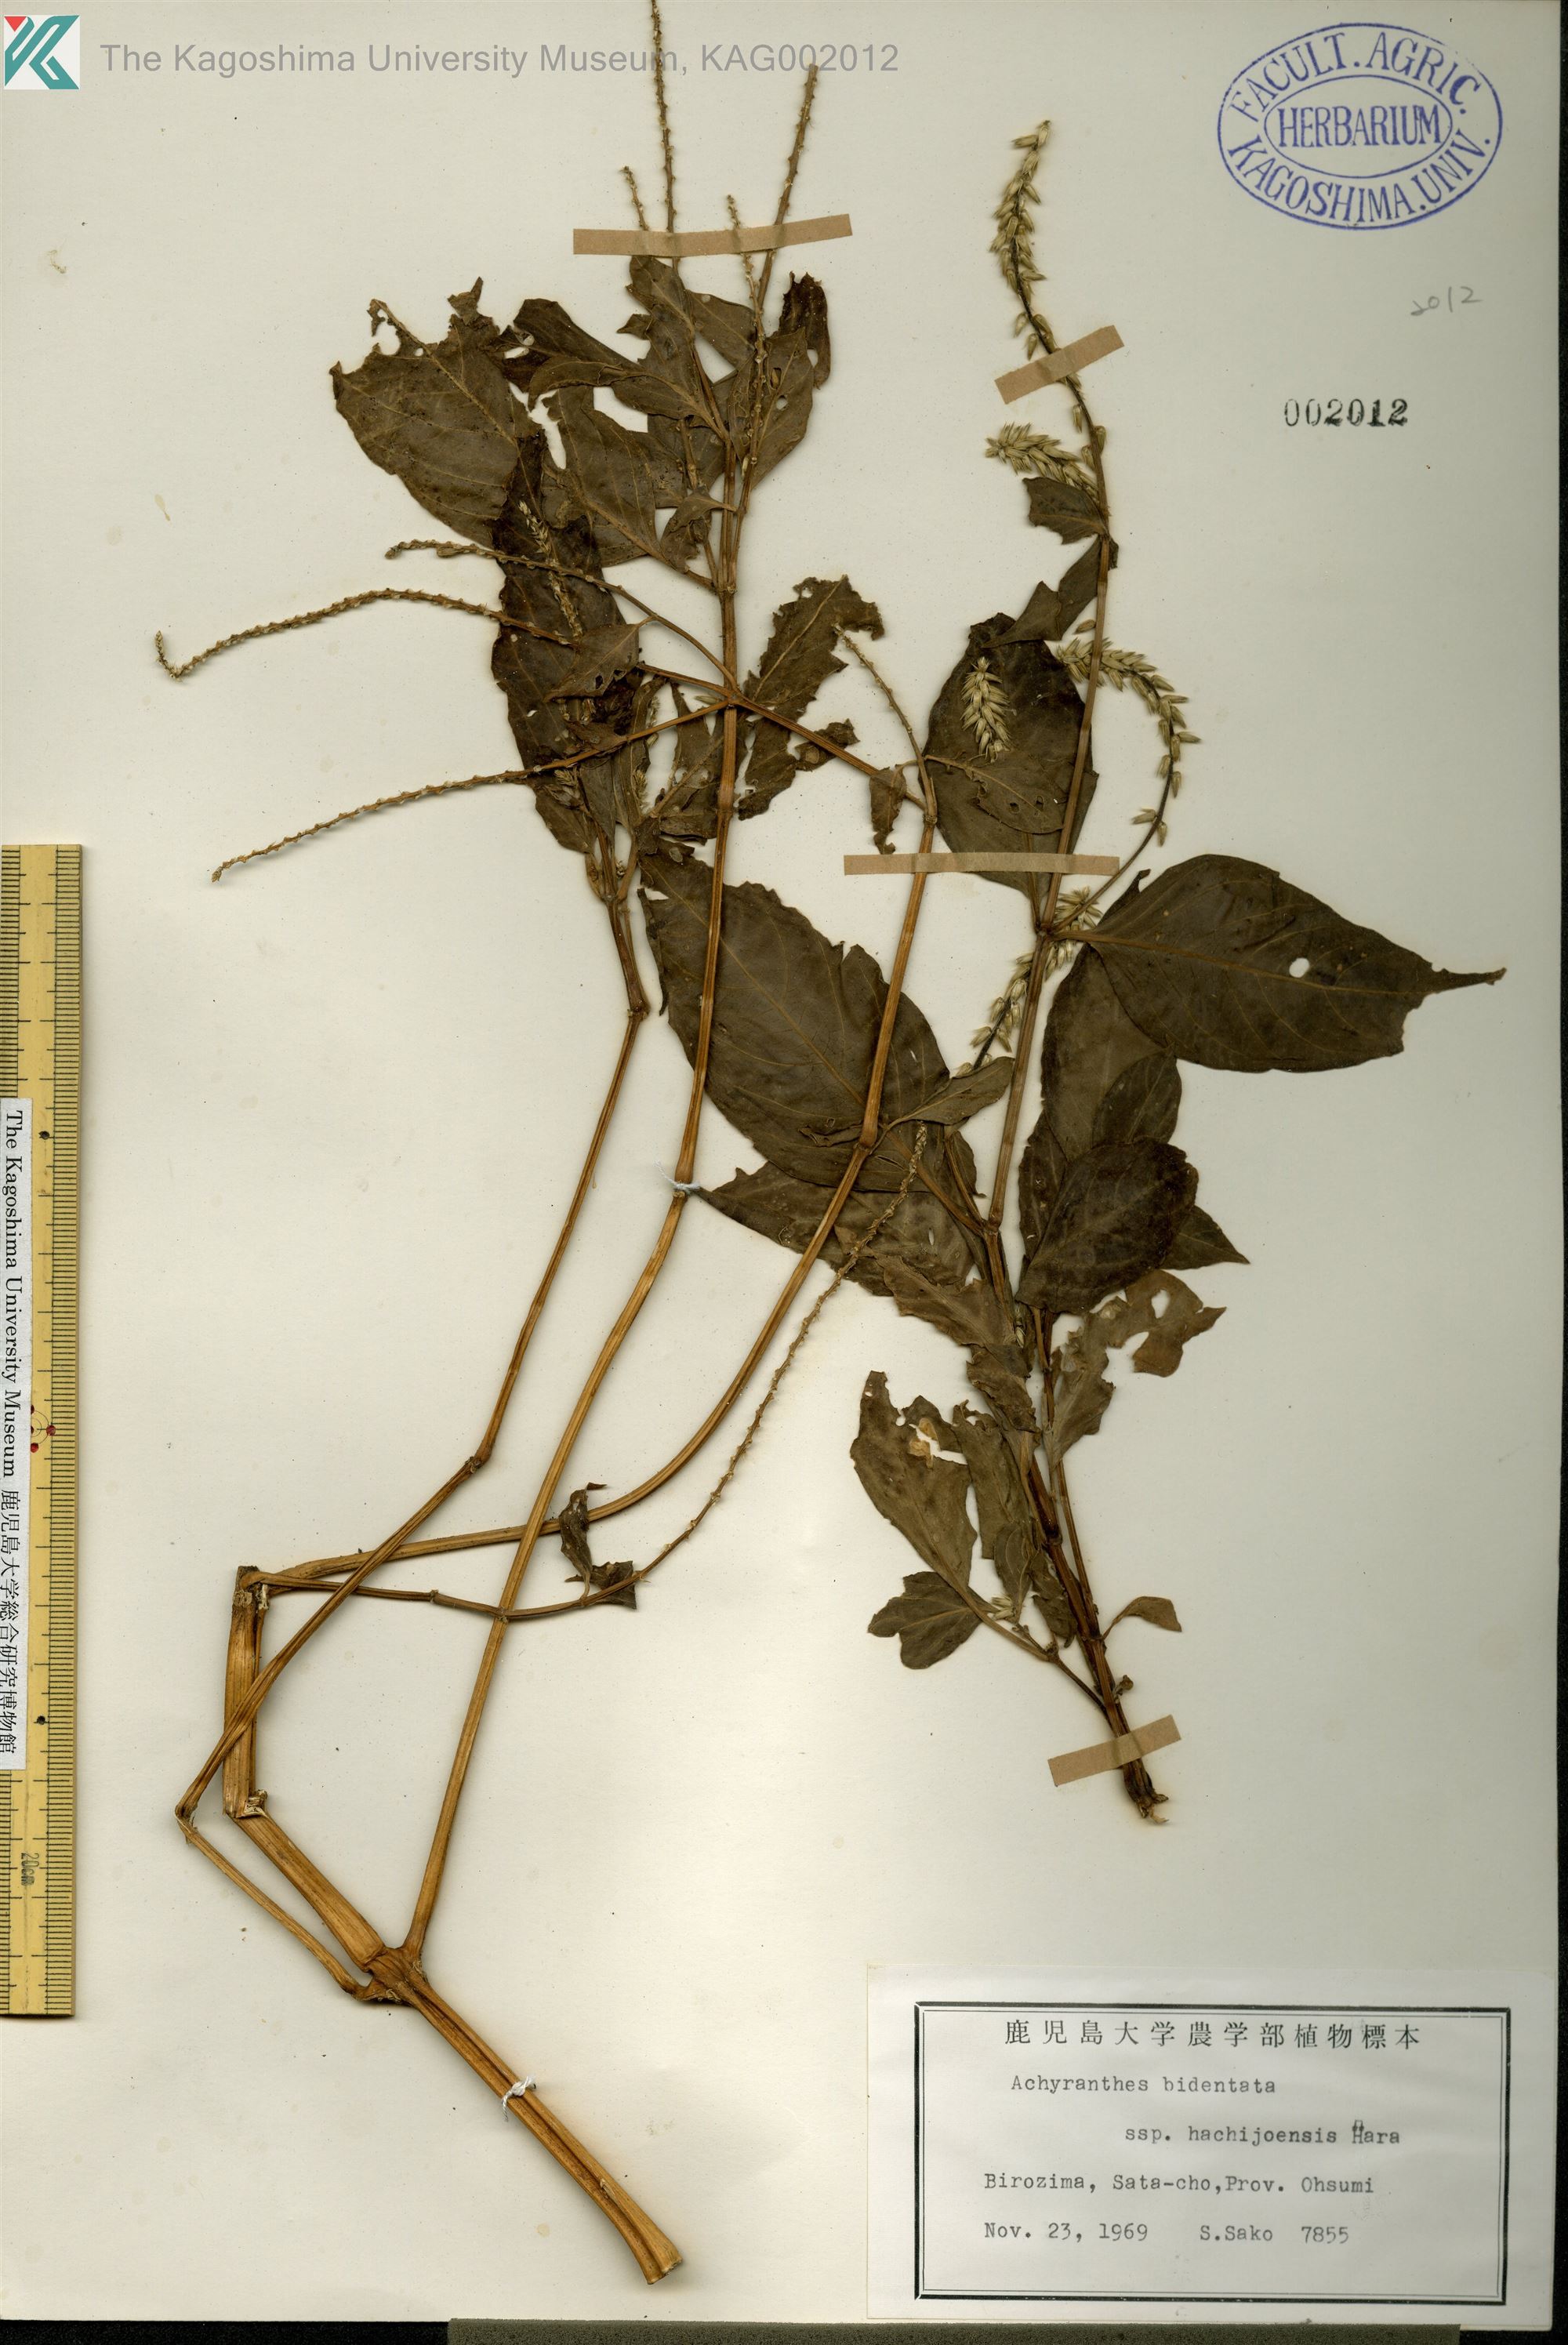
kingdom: Plantae
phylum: Tracheophyta
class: Magnoliopsida
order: Caryophyllales
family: Amaranthaceae
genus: Achyranthes
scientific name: Achyranthes bidentata
